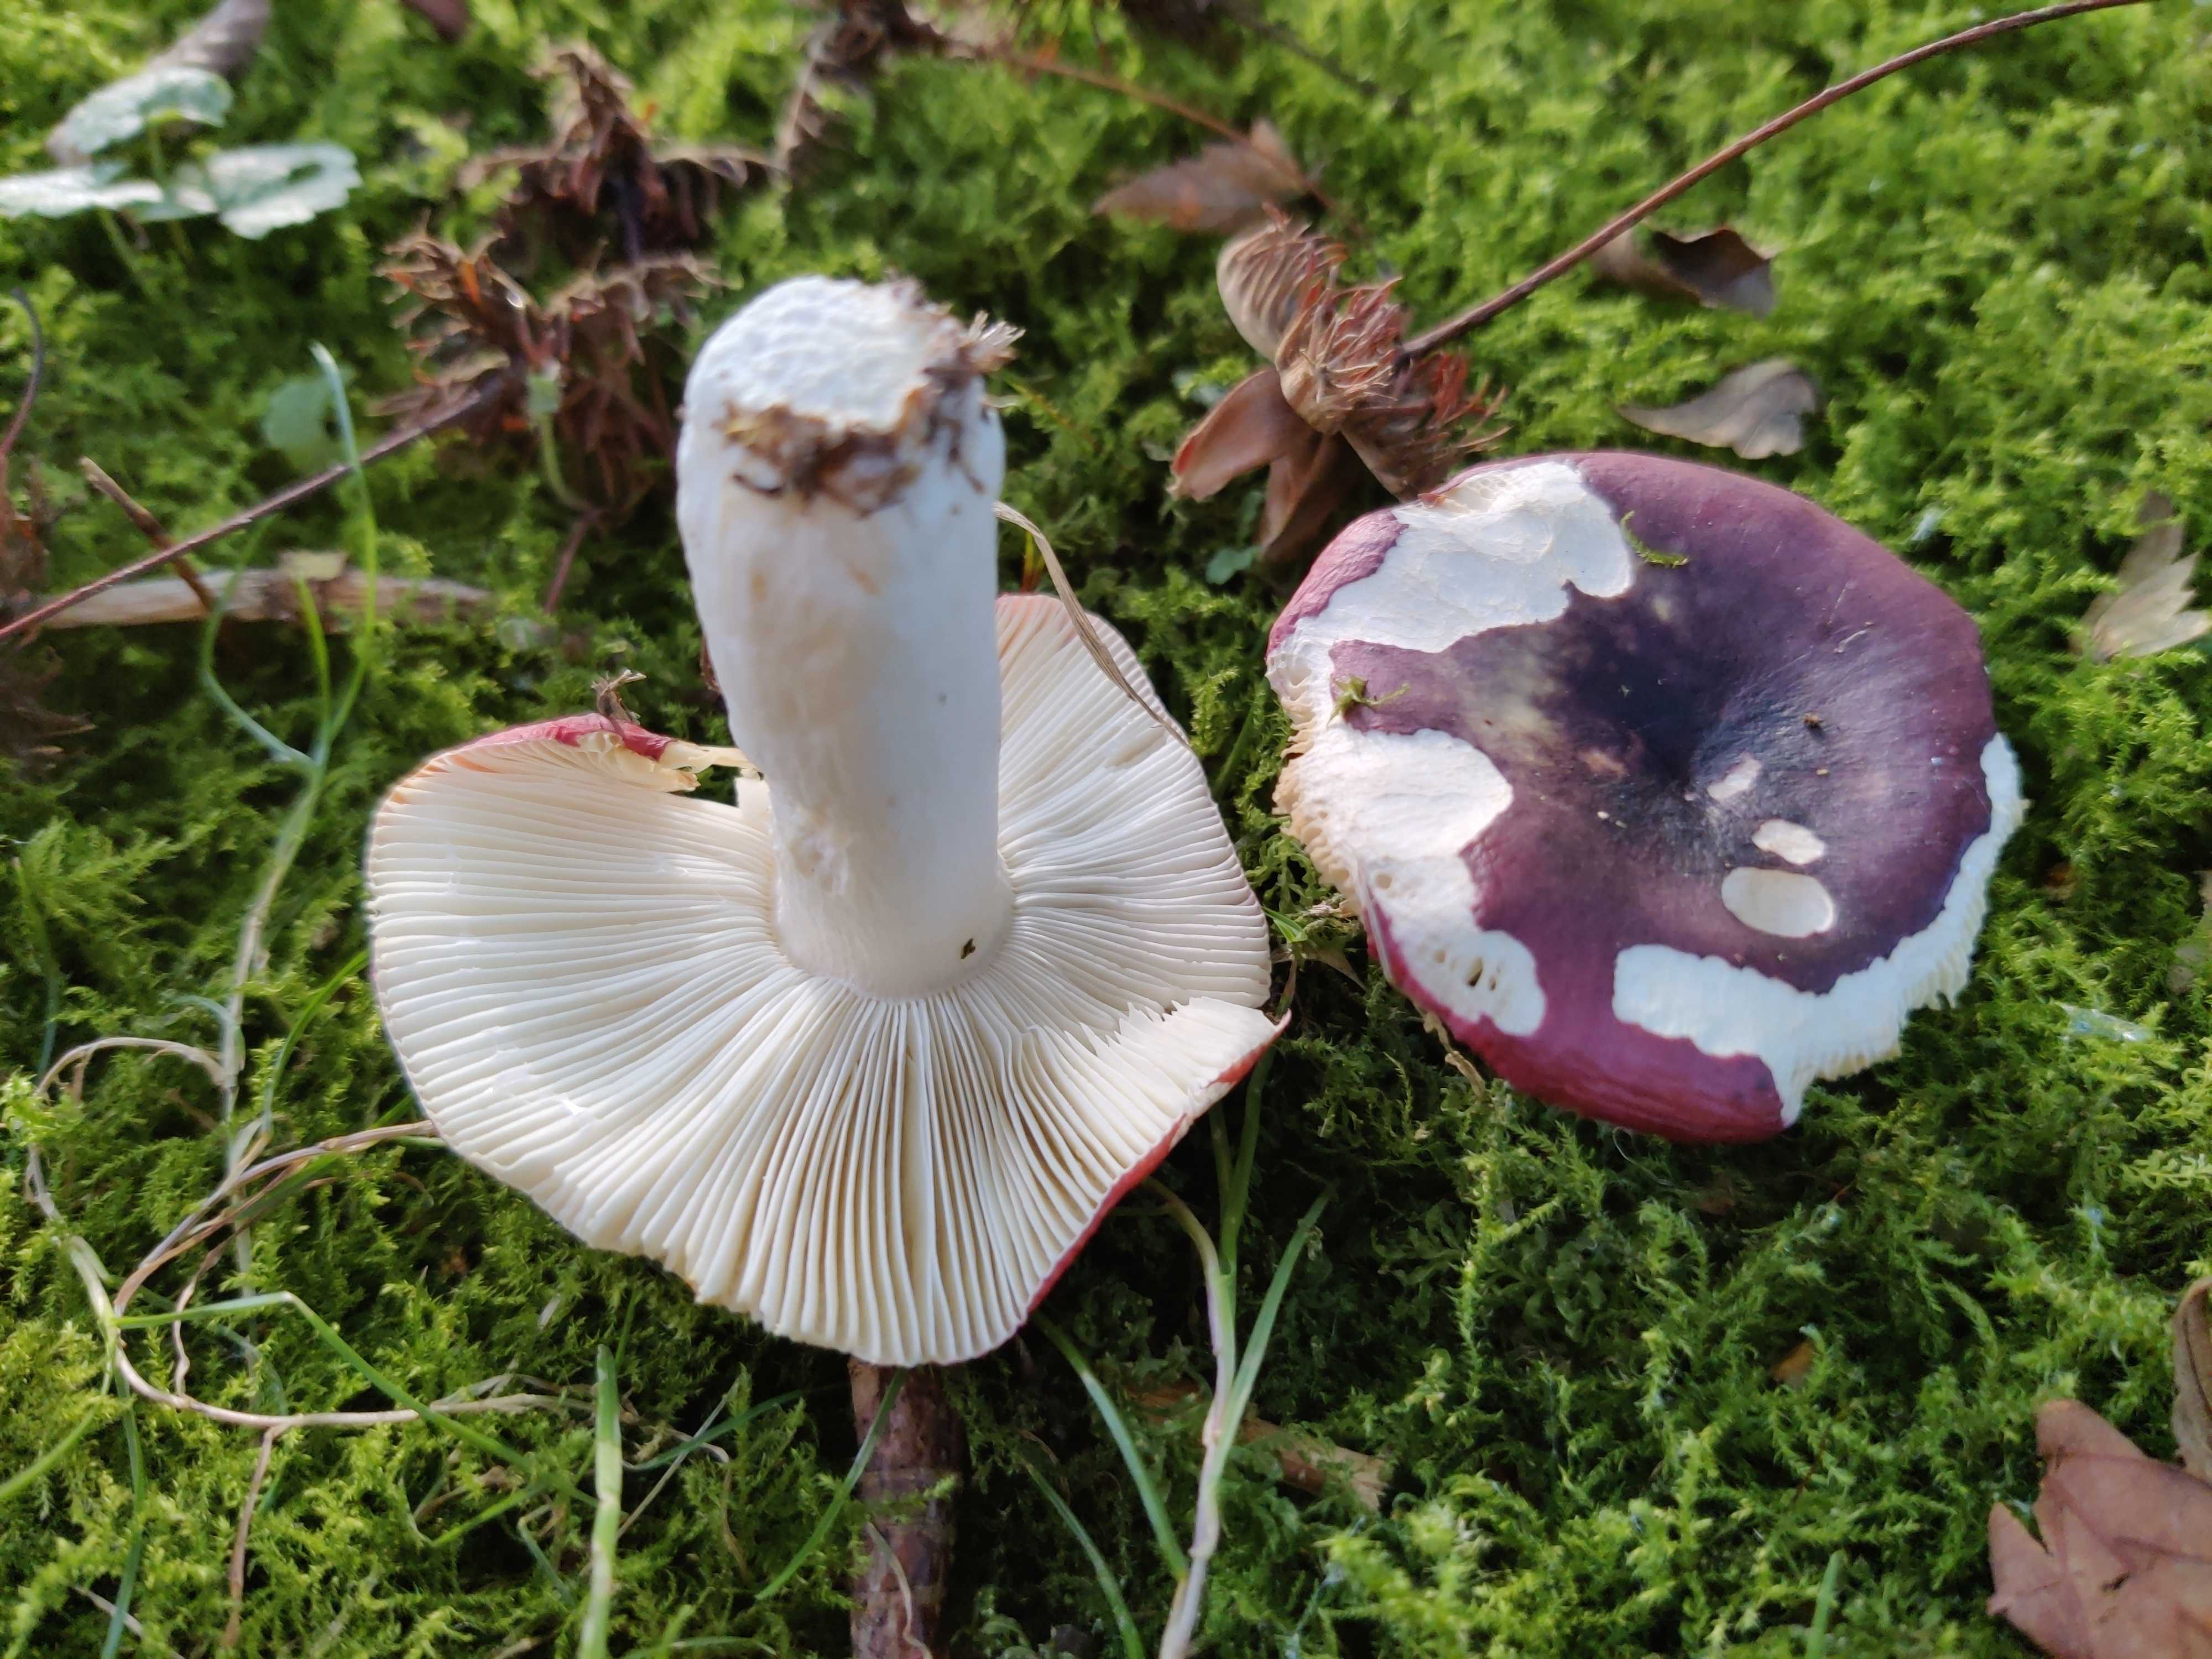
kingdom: Fungi
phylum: Basidiomycota
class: Agaricomycetes
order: Russulales
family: Russulaceae
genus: Russula
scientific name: Russula atropurpurea
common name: purpurbroget skørhat
